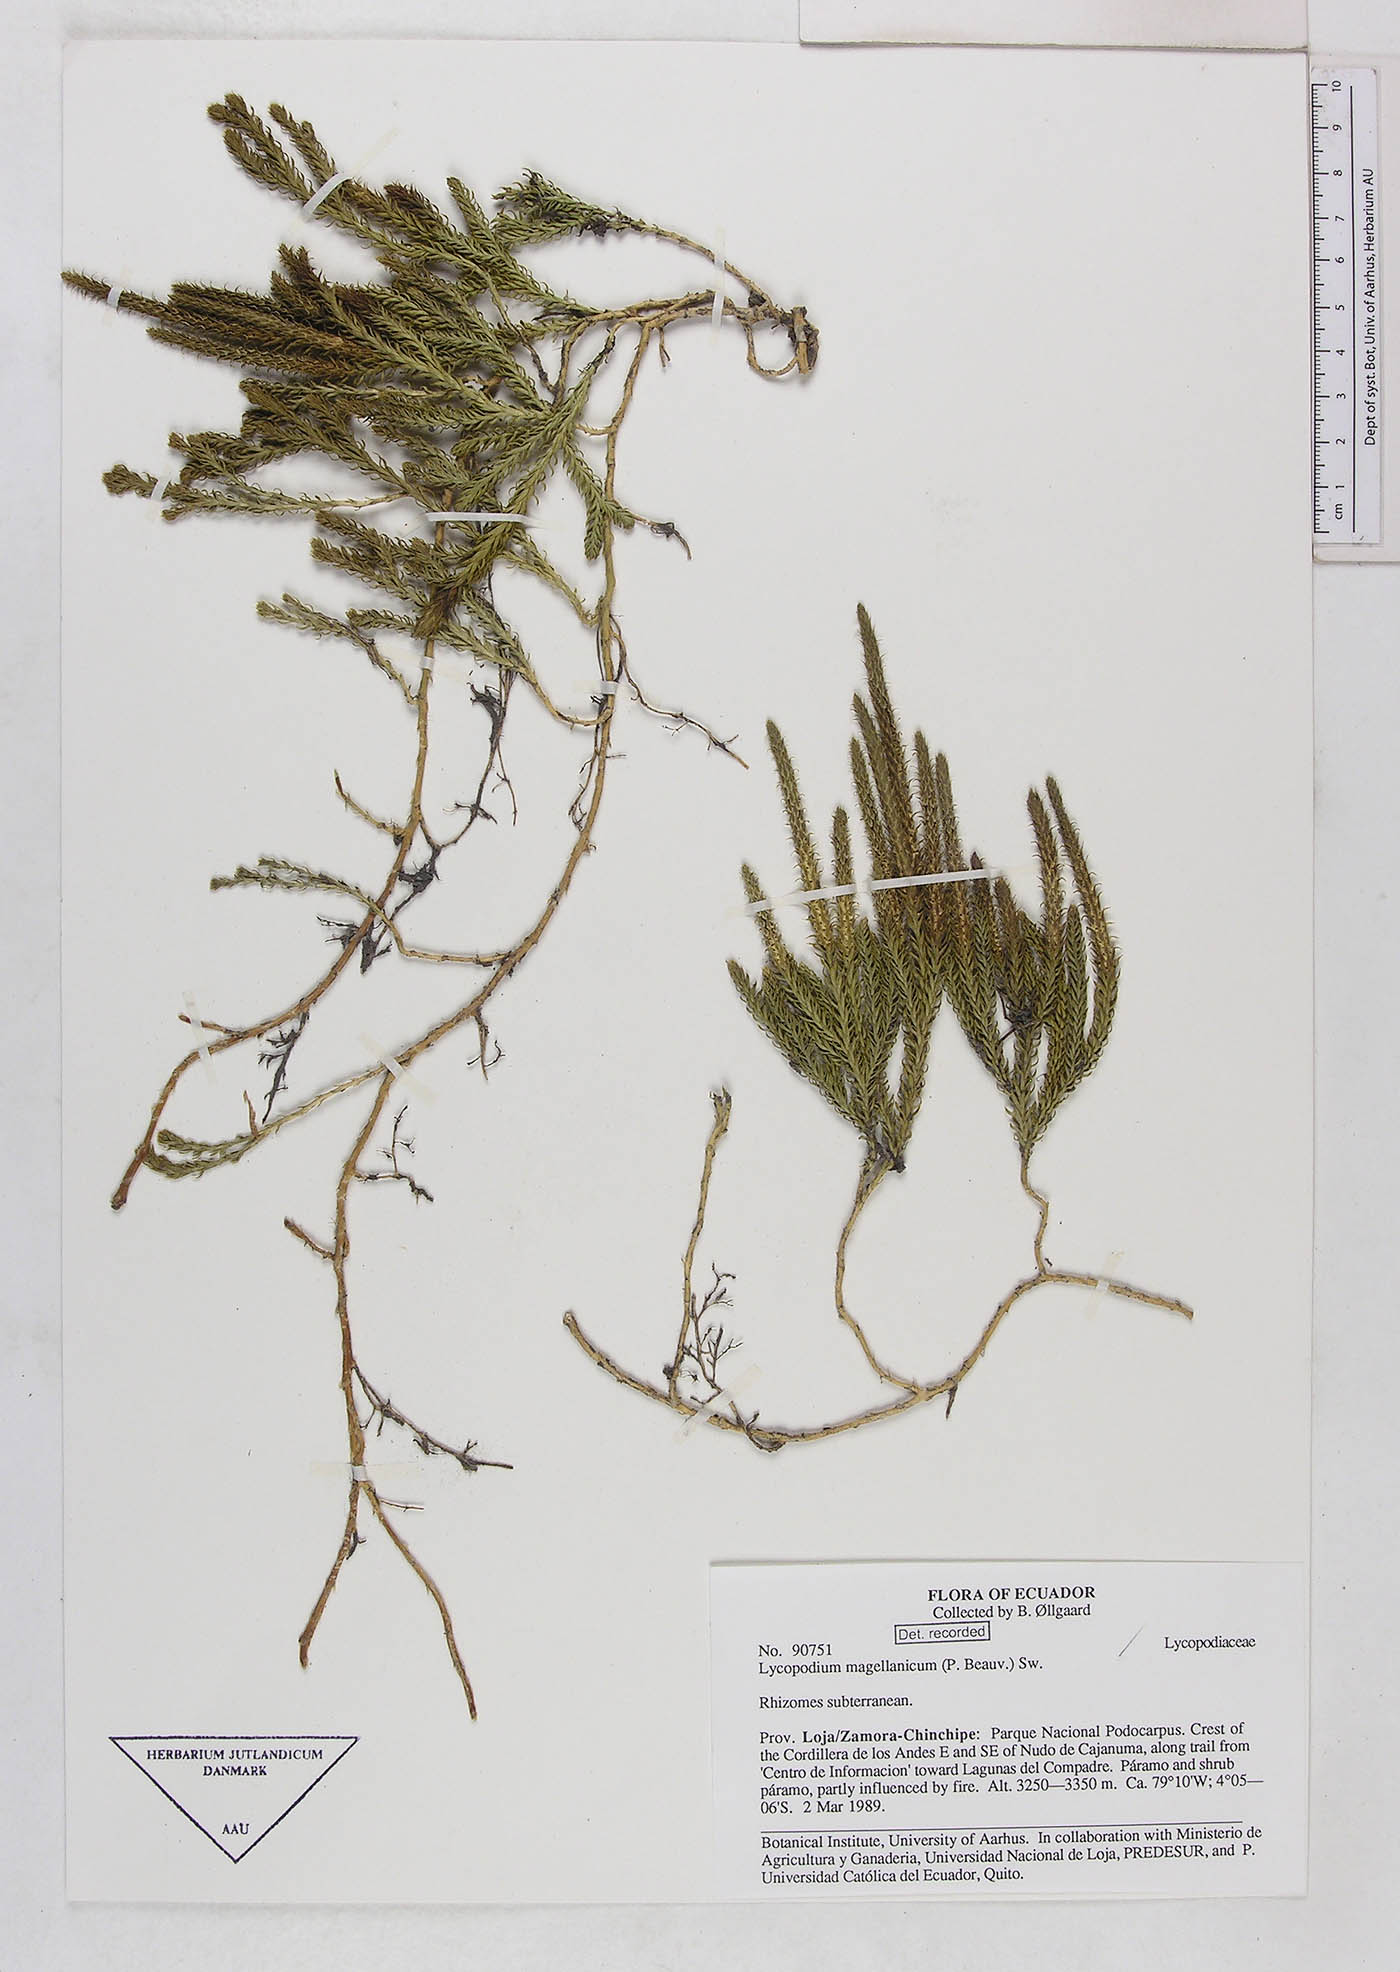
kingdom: Plantae
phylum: Tracheophyta
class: Lycopodiopsida
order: Lycopodiales
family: Lycopodiaceae
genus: Austrolycopodium
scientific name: Austrolycopodium magellanicum
